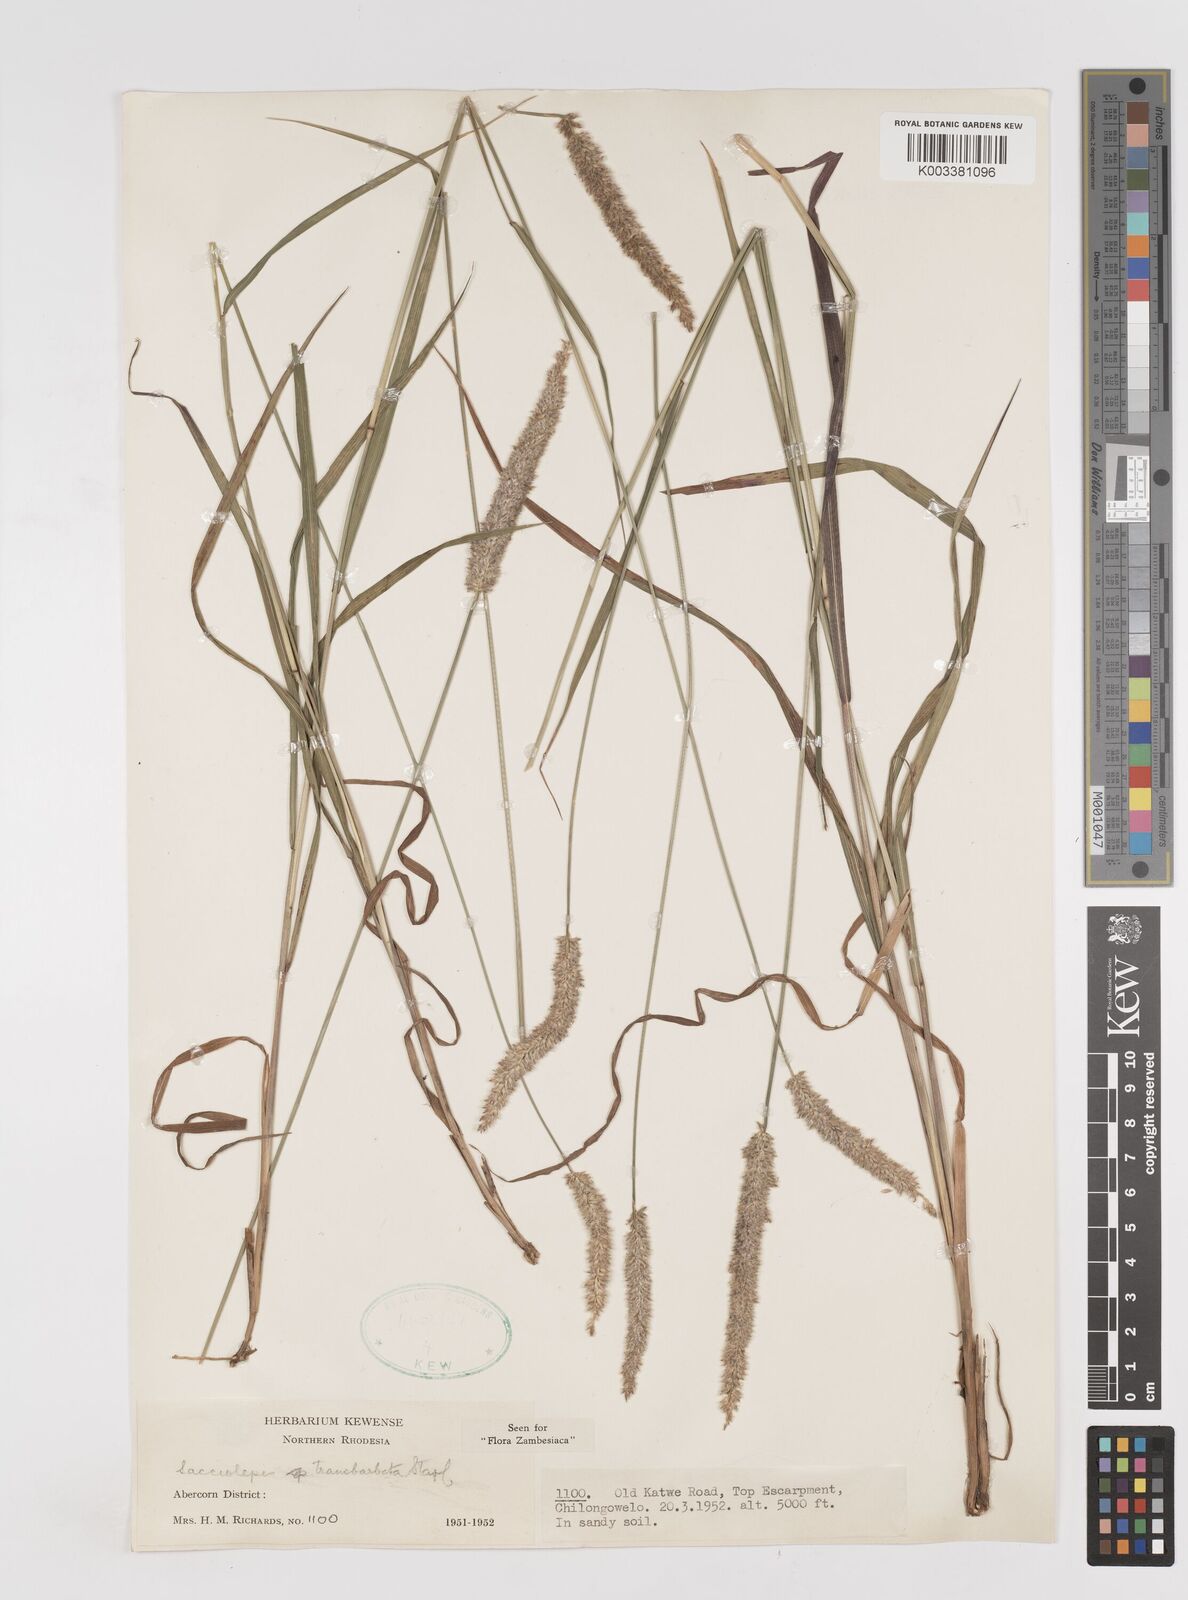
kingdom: Plantae
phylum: Tracheophyta
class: Liliopsida
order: Poales
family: Poaceae
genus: Sacciolepis
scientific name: Sacciolepis transbarbata
